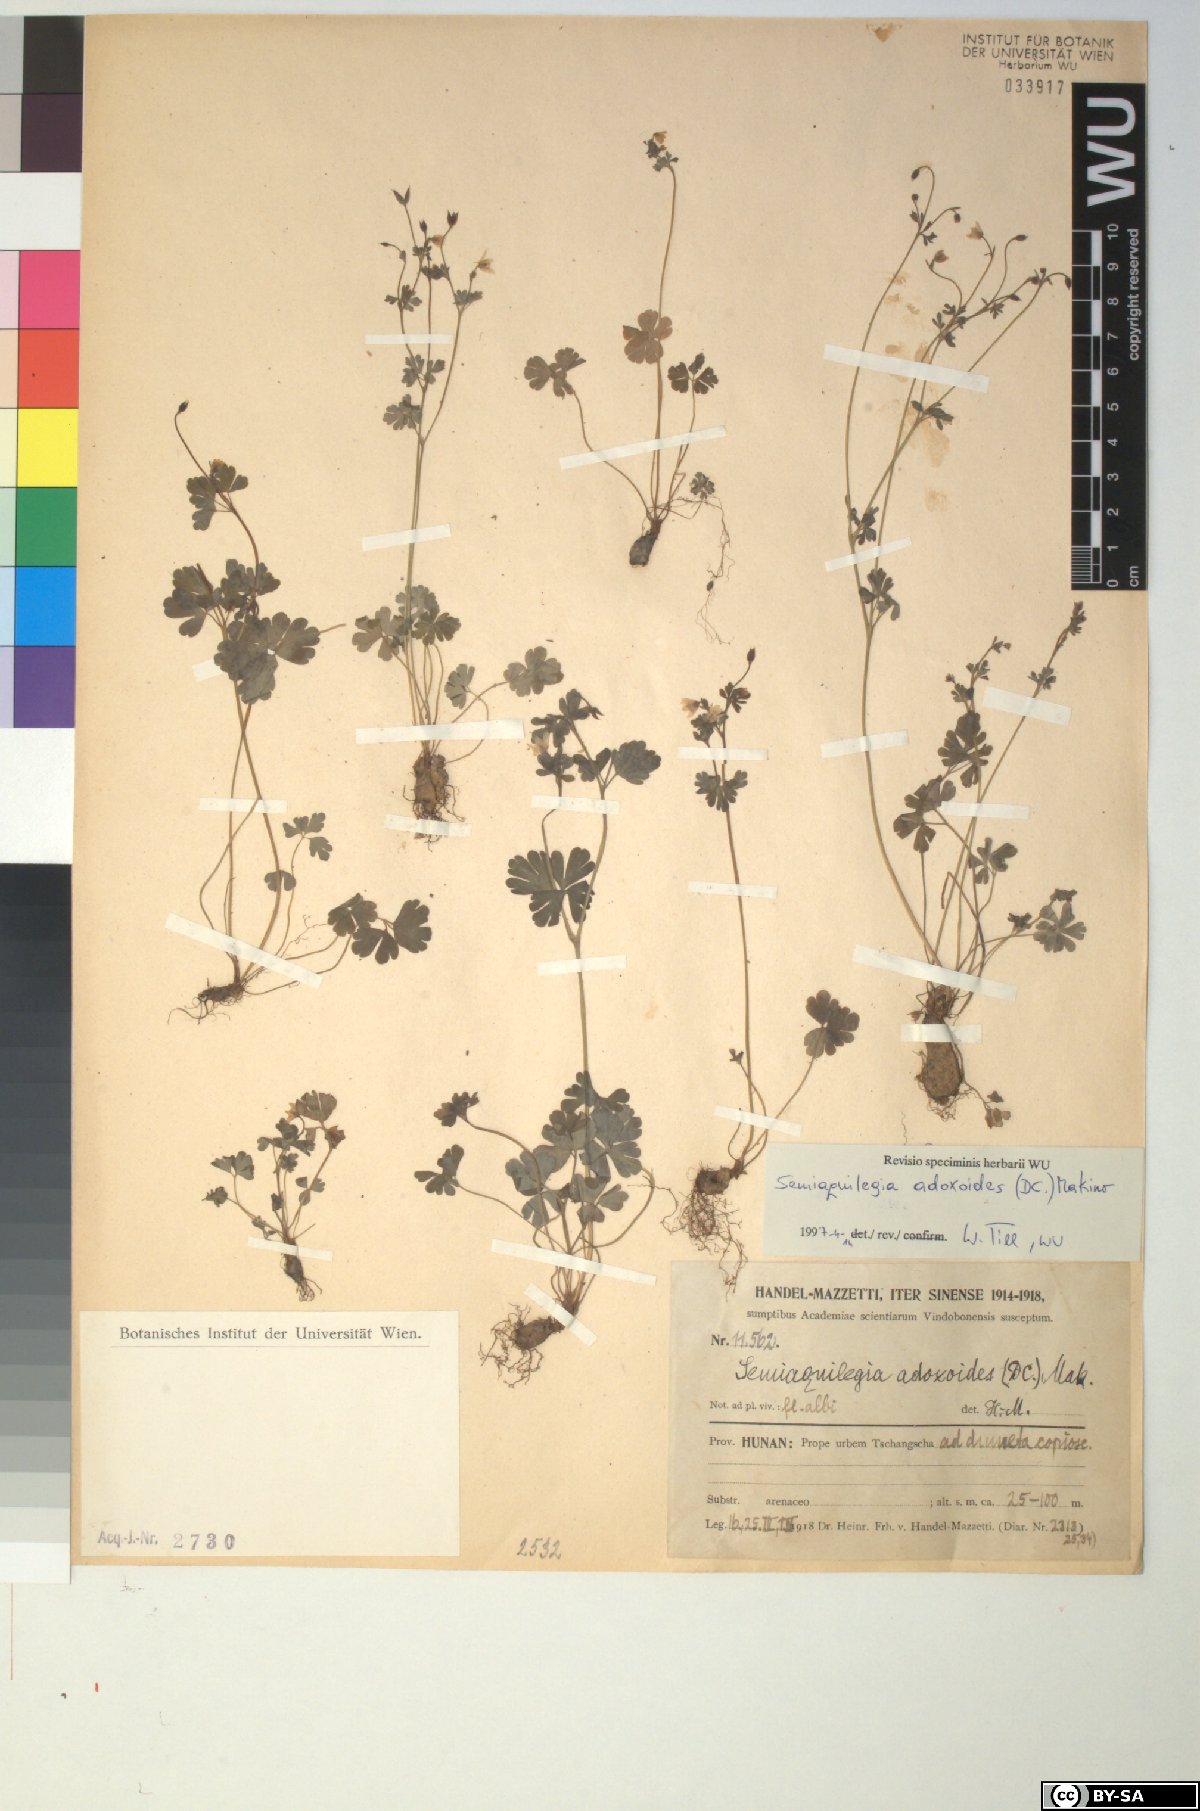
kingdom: Plantae
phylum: Tracheophyta
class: Magnoliopsida
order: Ranunculales
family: Ranunculaceae
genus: Semiaquilegia
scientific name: Semiaquilegia adoxoides
